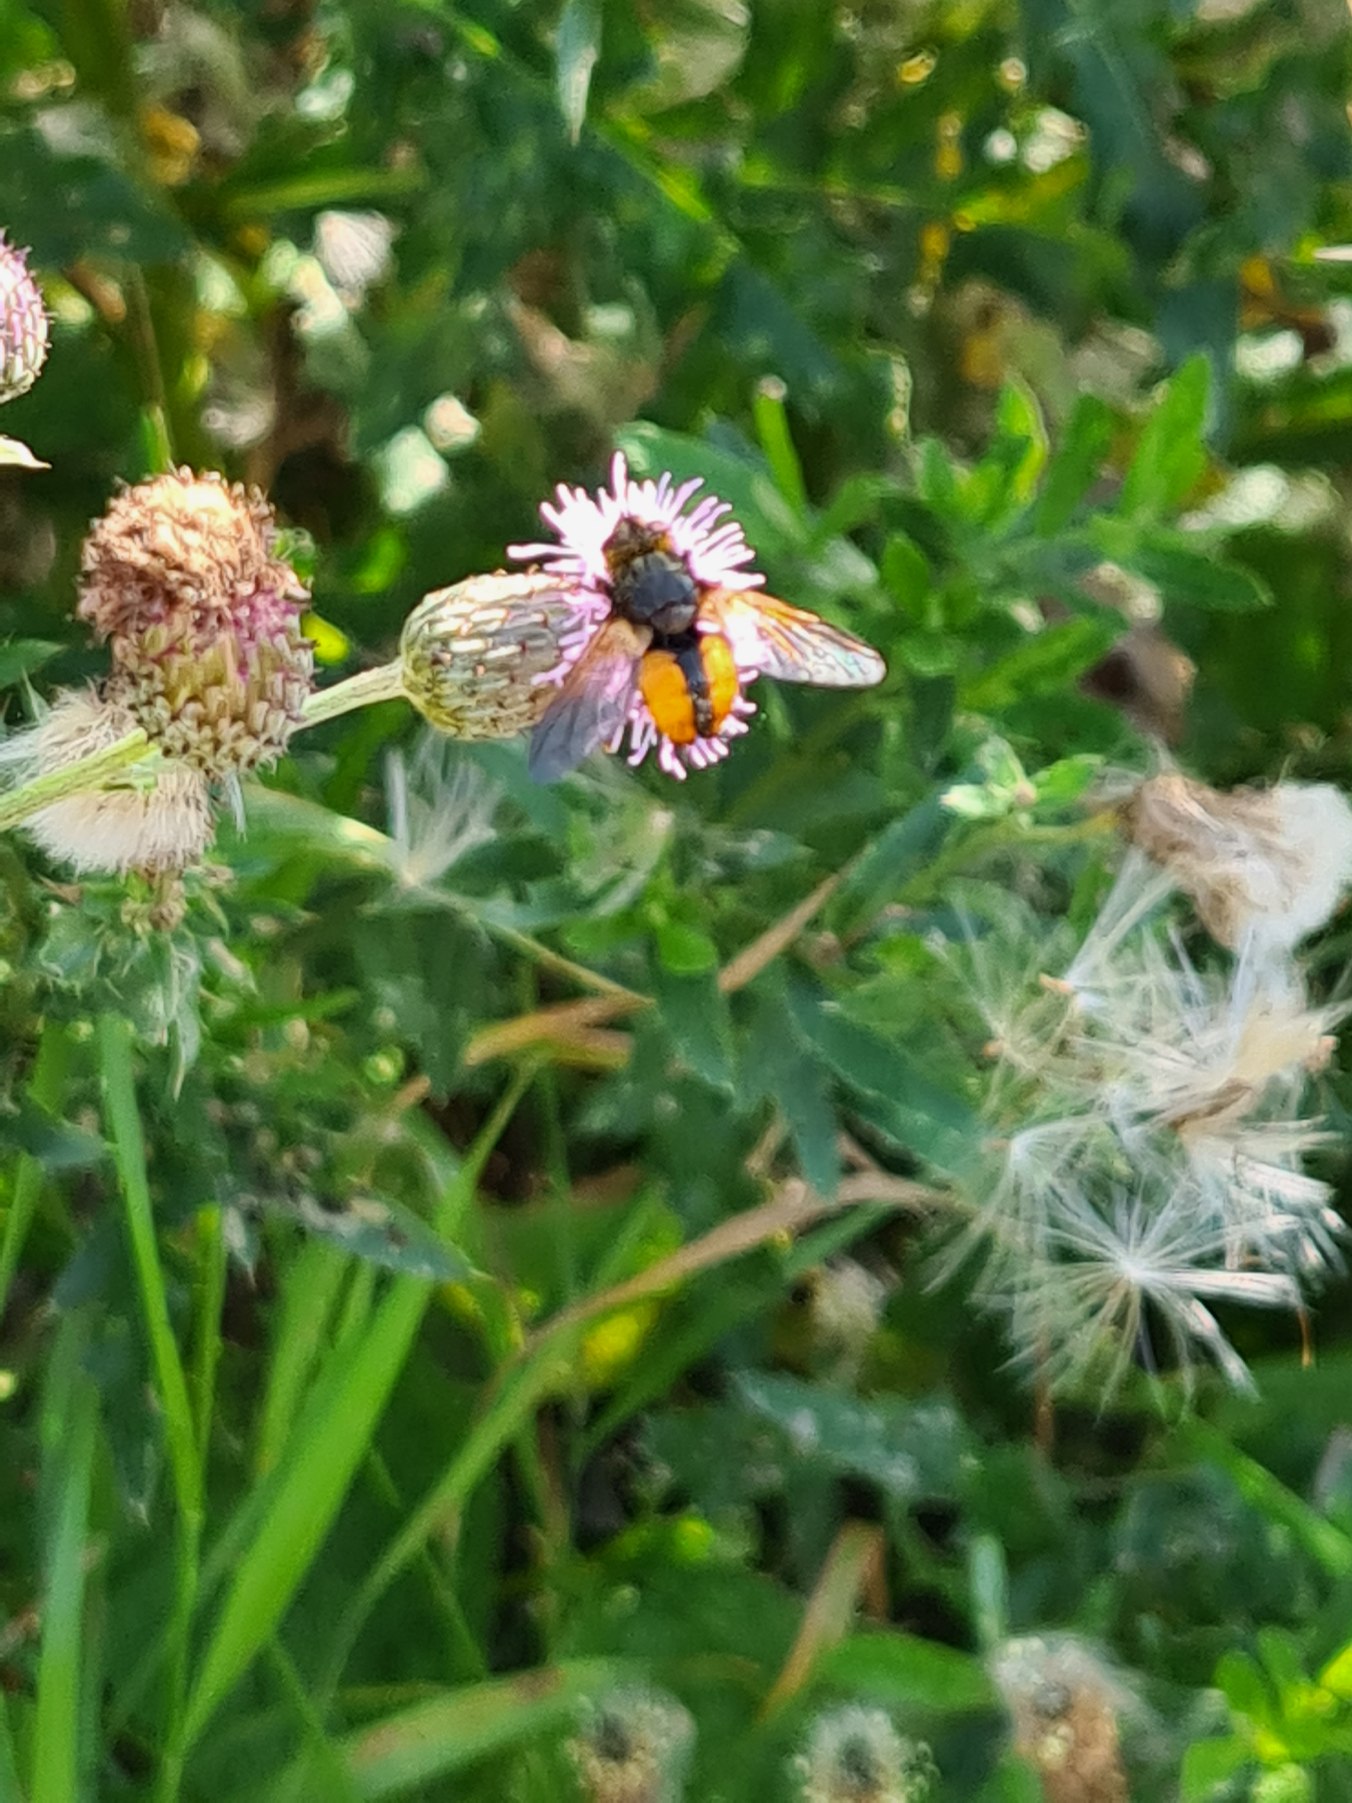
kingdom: Animalia
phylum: Arthropoda
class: Insecta
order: Diptera
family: Tachinidae
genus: Tachina
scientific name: Tachina fera
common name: Mellemfluen oskar
